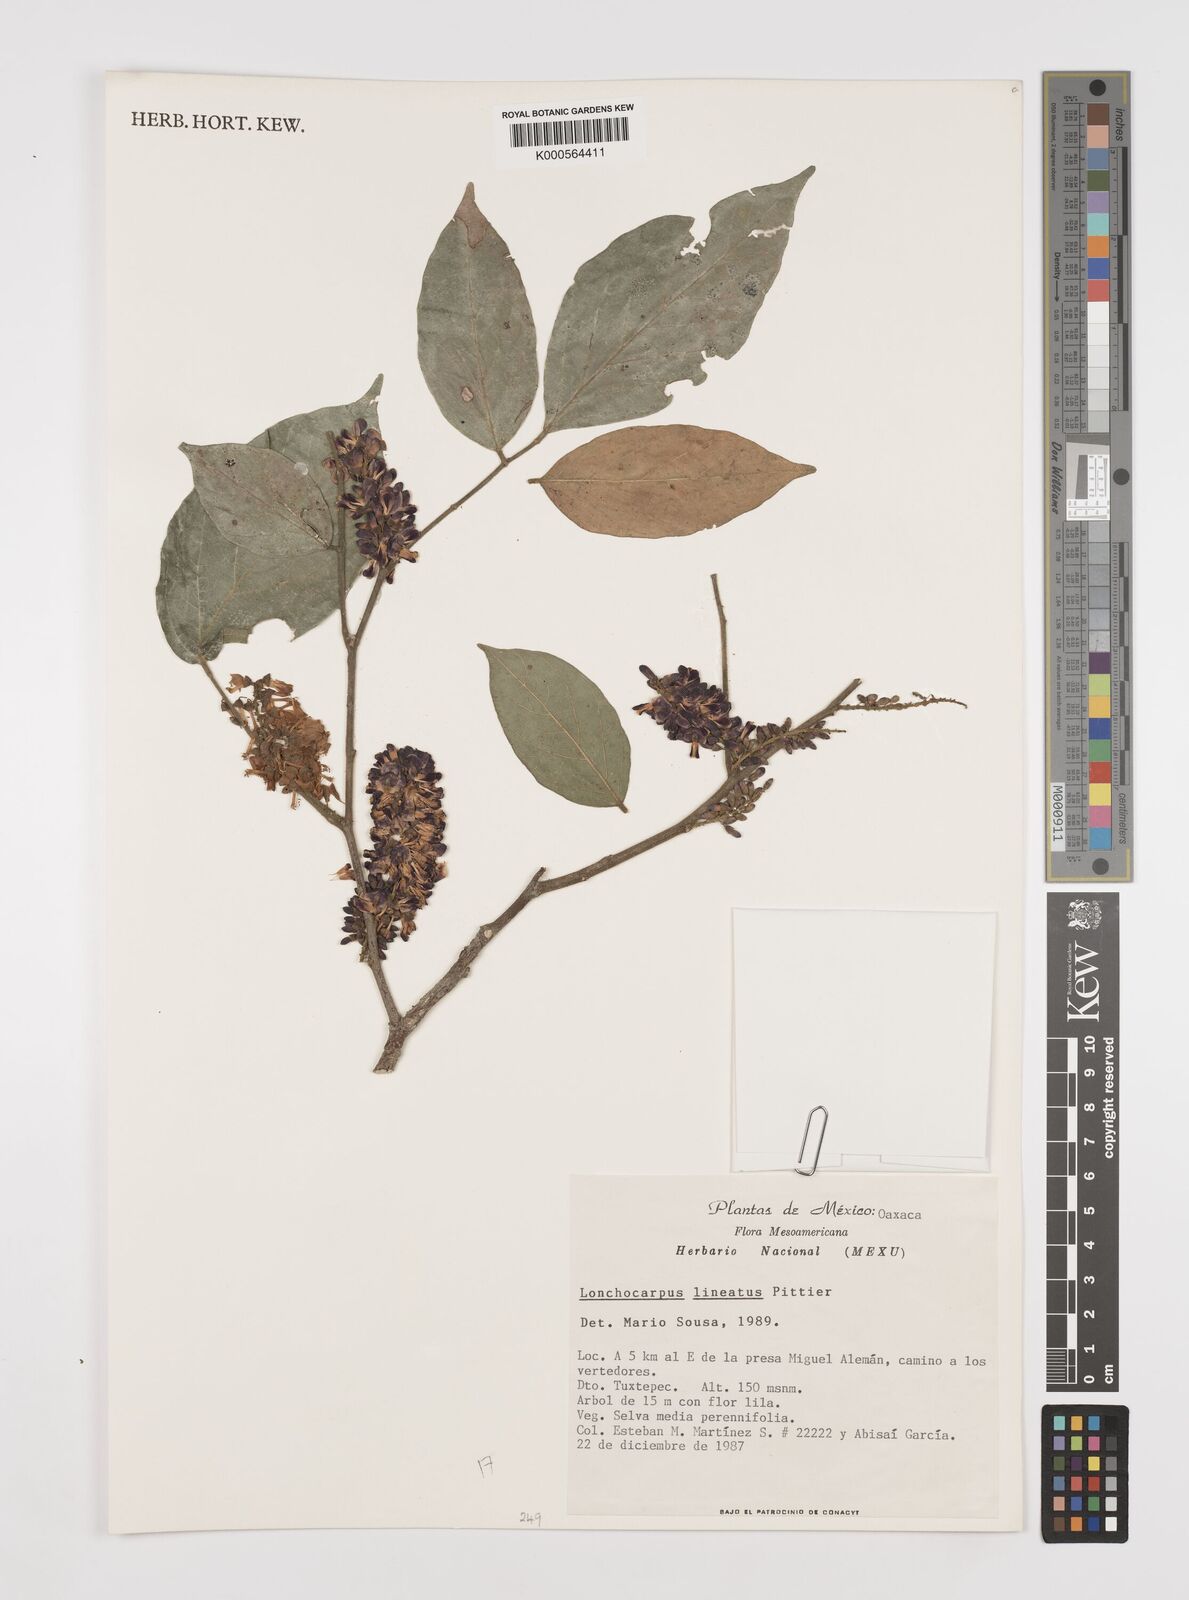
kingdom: Plantae
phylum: Tracheophyta
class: Magnoliopsida
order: Fabales
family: Fabaceae
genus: Lonchocarpus
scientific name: Lonchocarpus lineatus
